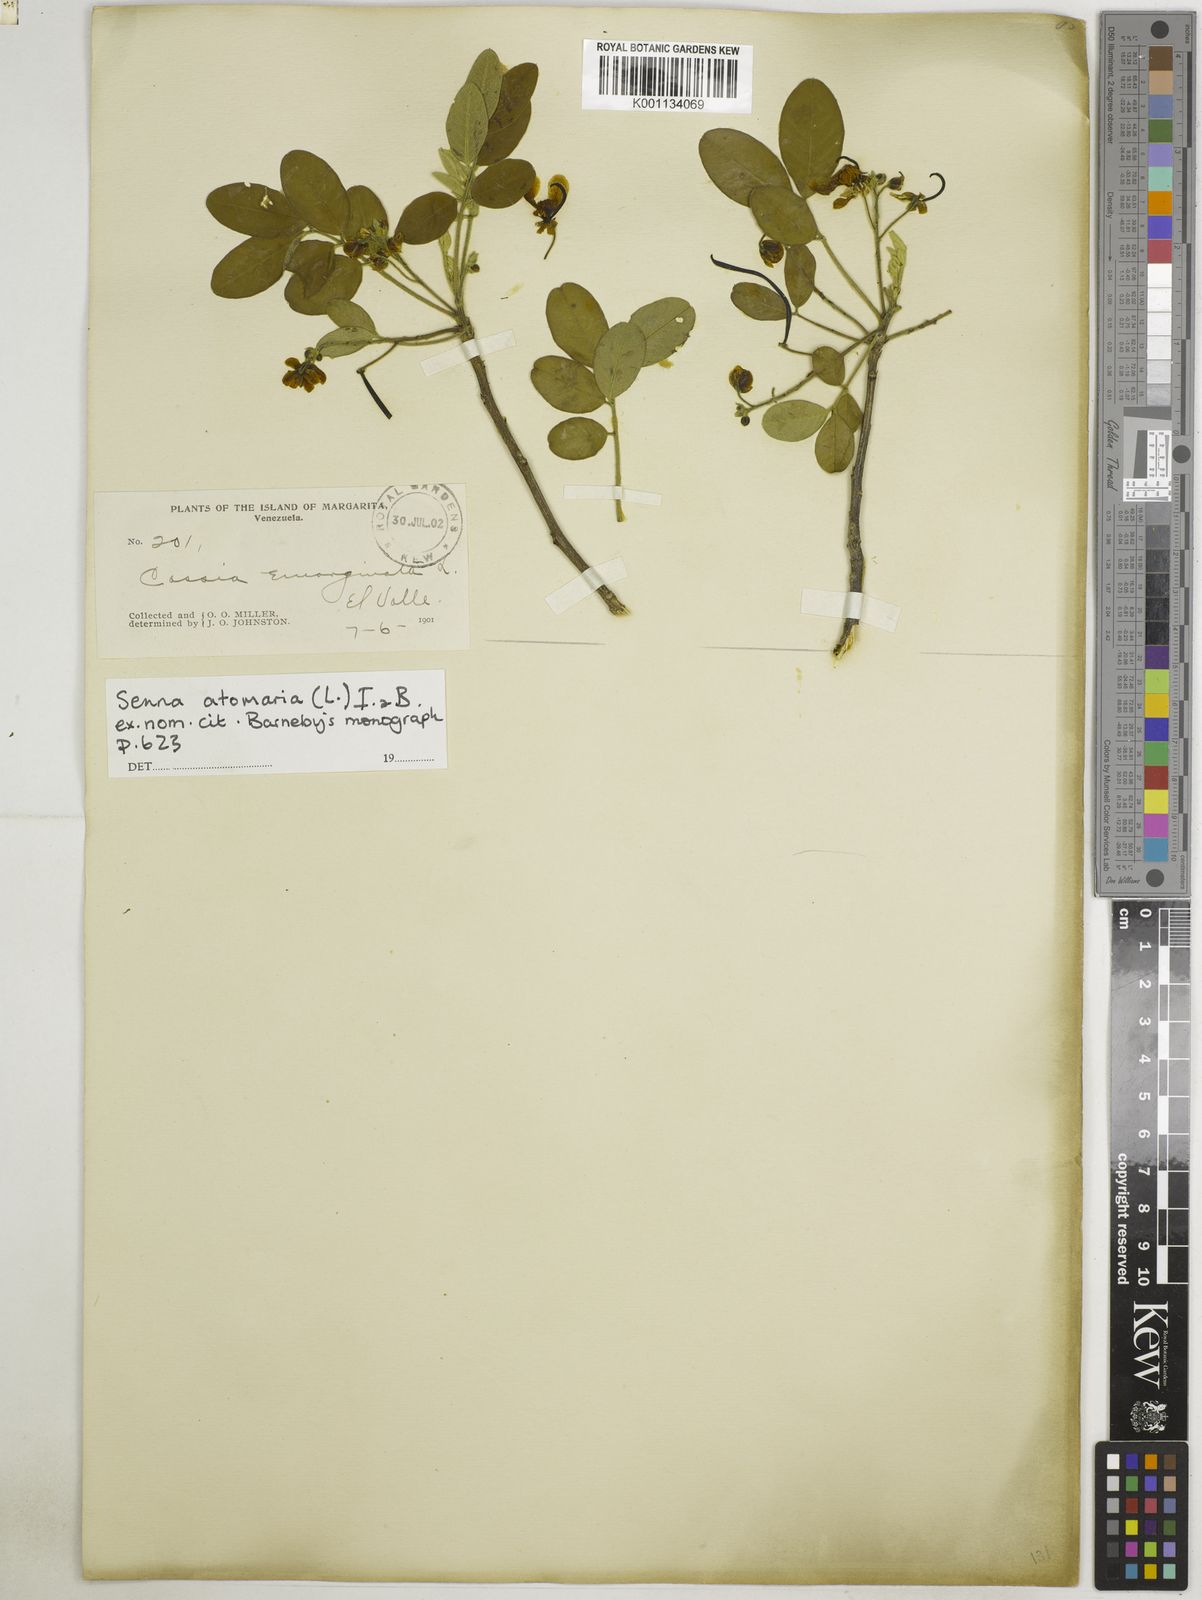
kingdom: Plantae
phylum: Tracheophyta
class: Magnoliopsida
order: Fabales
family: Fabaceae
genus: Senna
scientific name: Senna atomaria
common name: Flor de san jose
